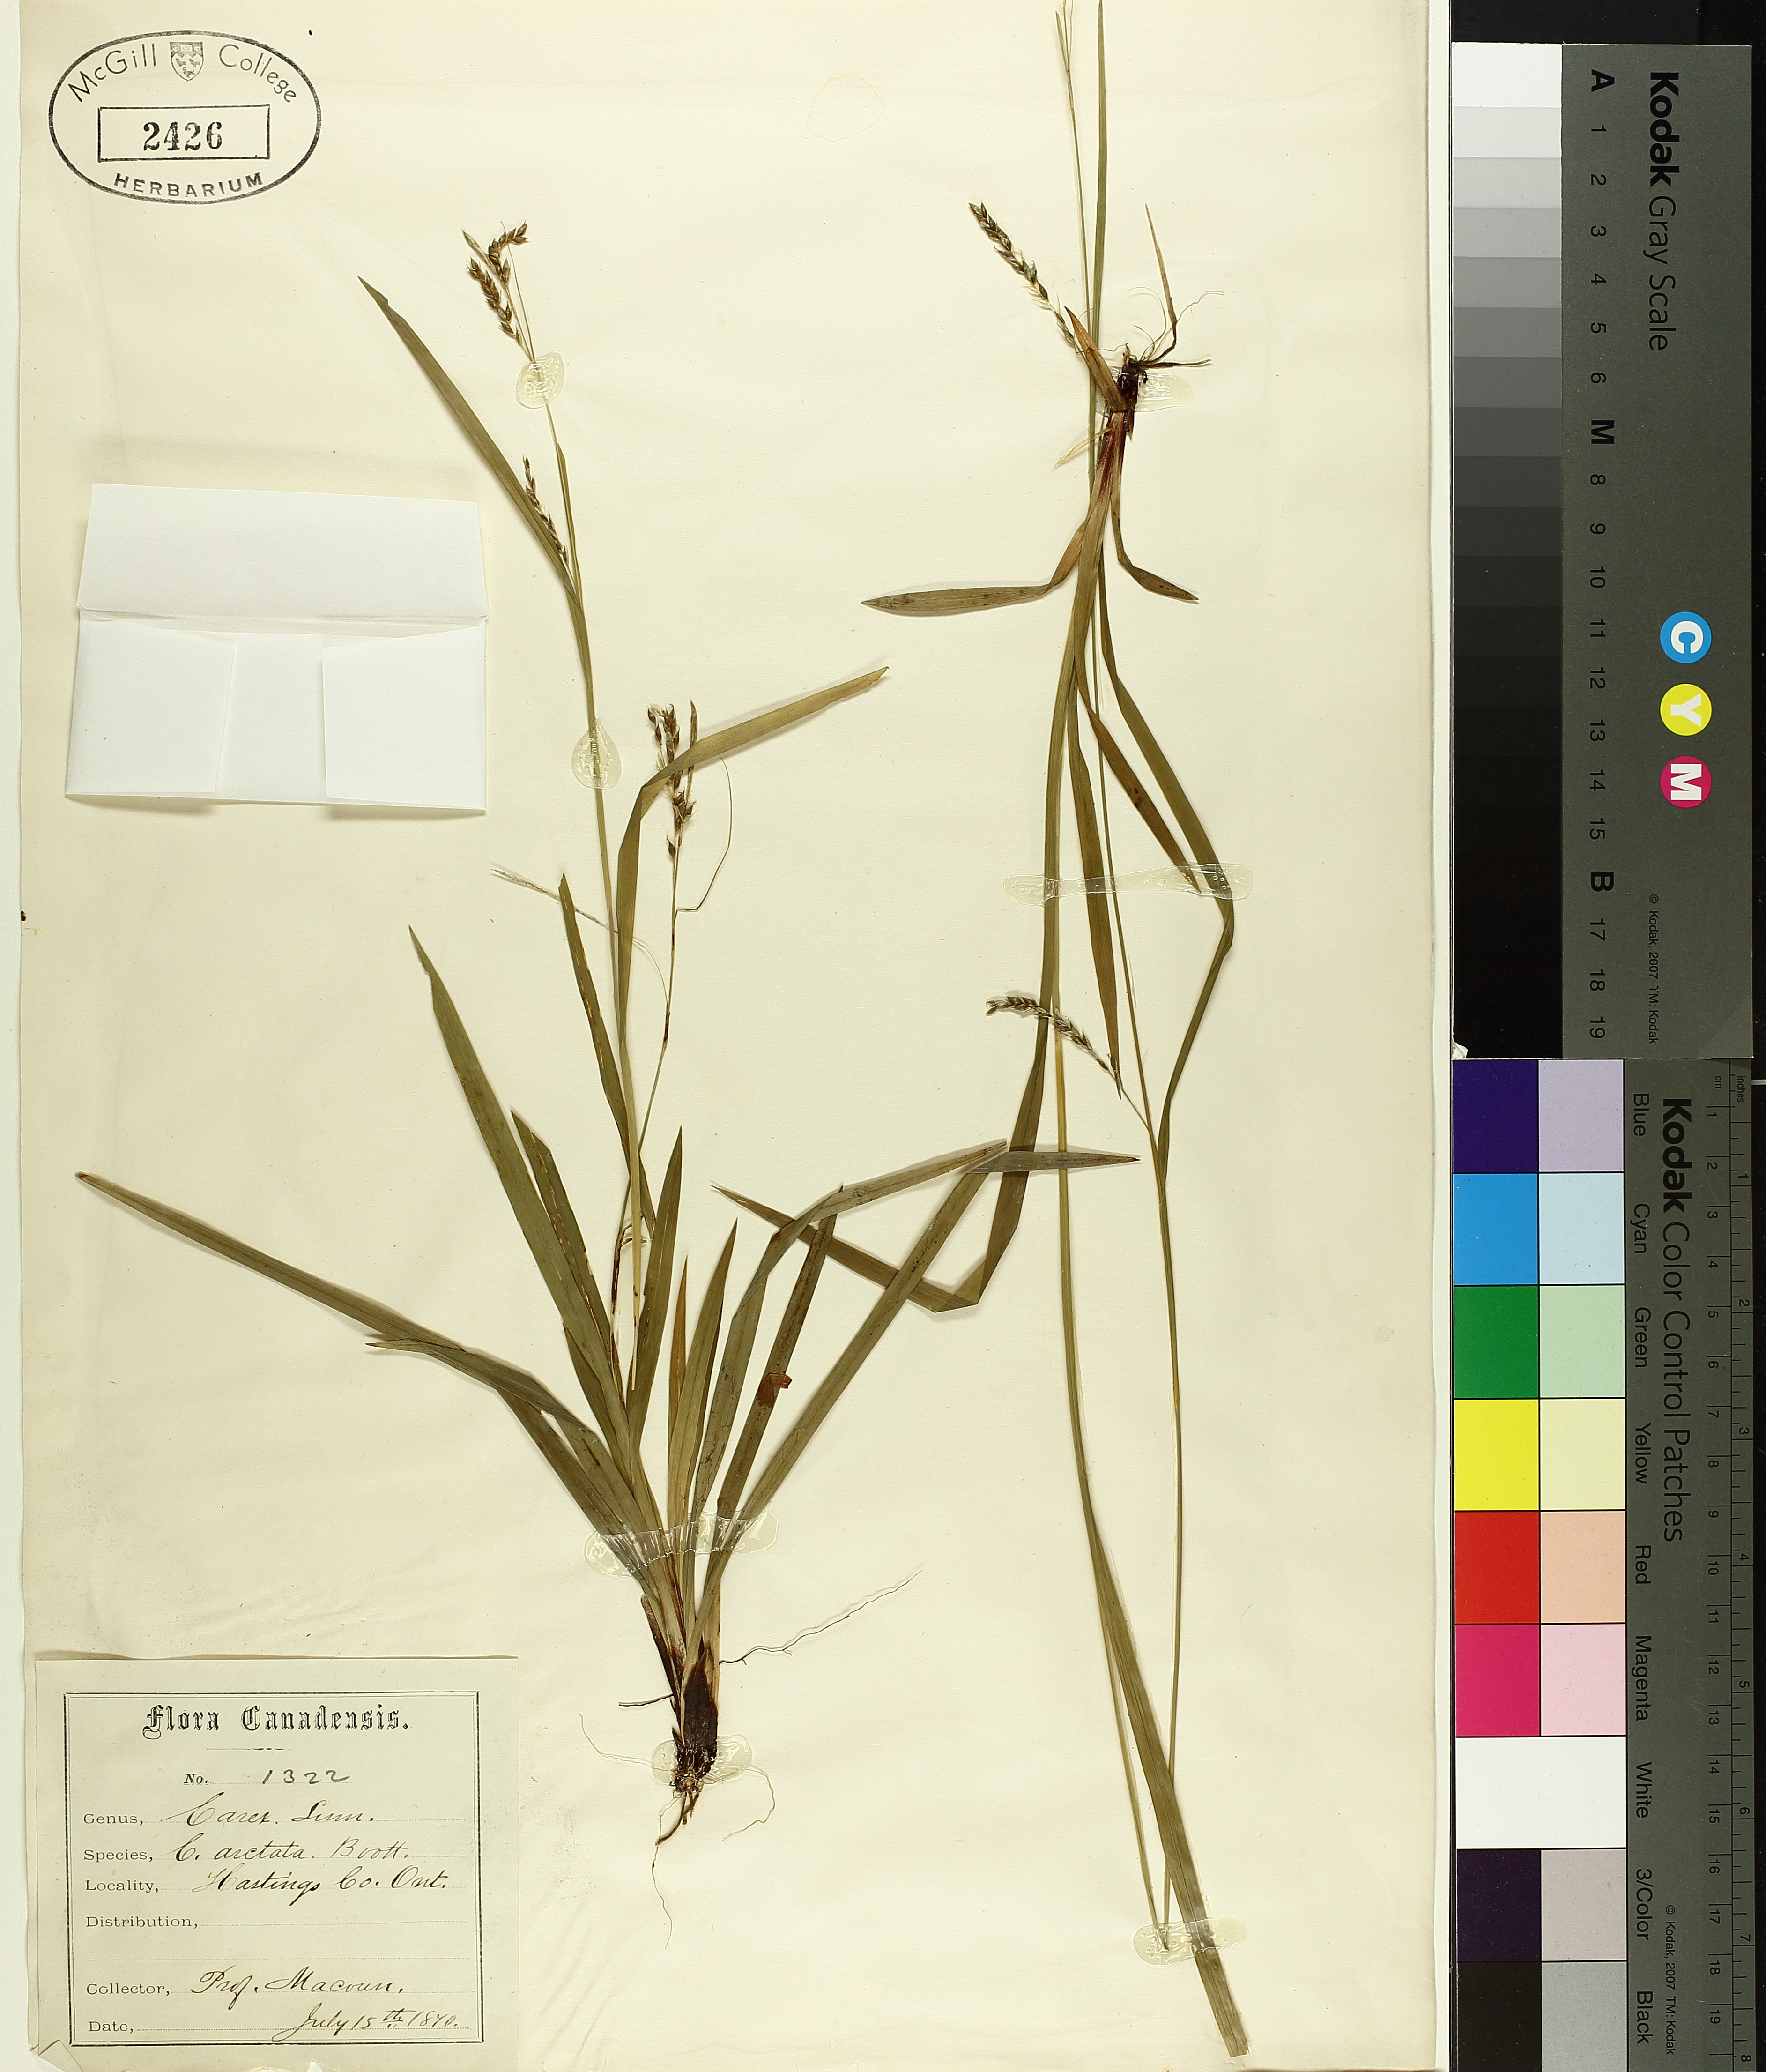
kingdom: Plantae
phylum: Tracheophyta
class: Liliopsida
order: Poales
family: Cyperaceae
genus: Carex
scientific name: Carex arctata
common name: Black sedge
